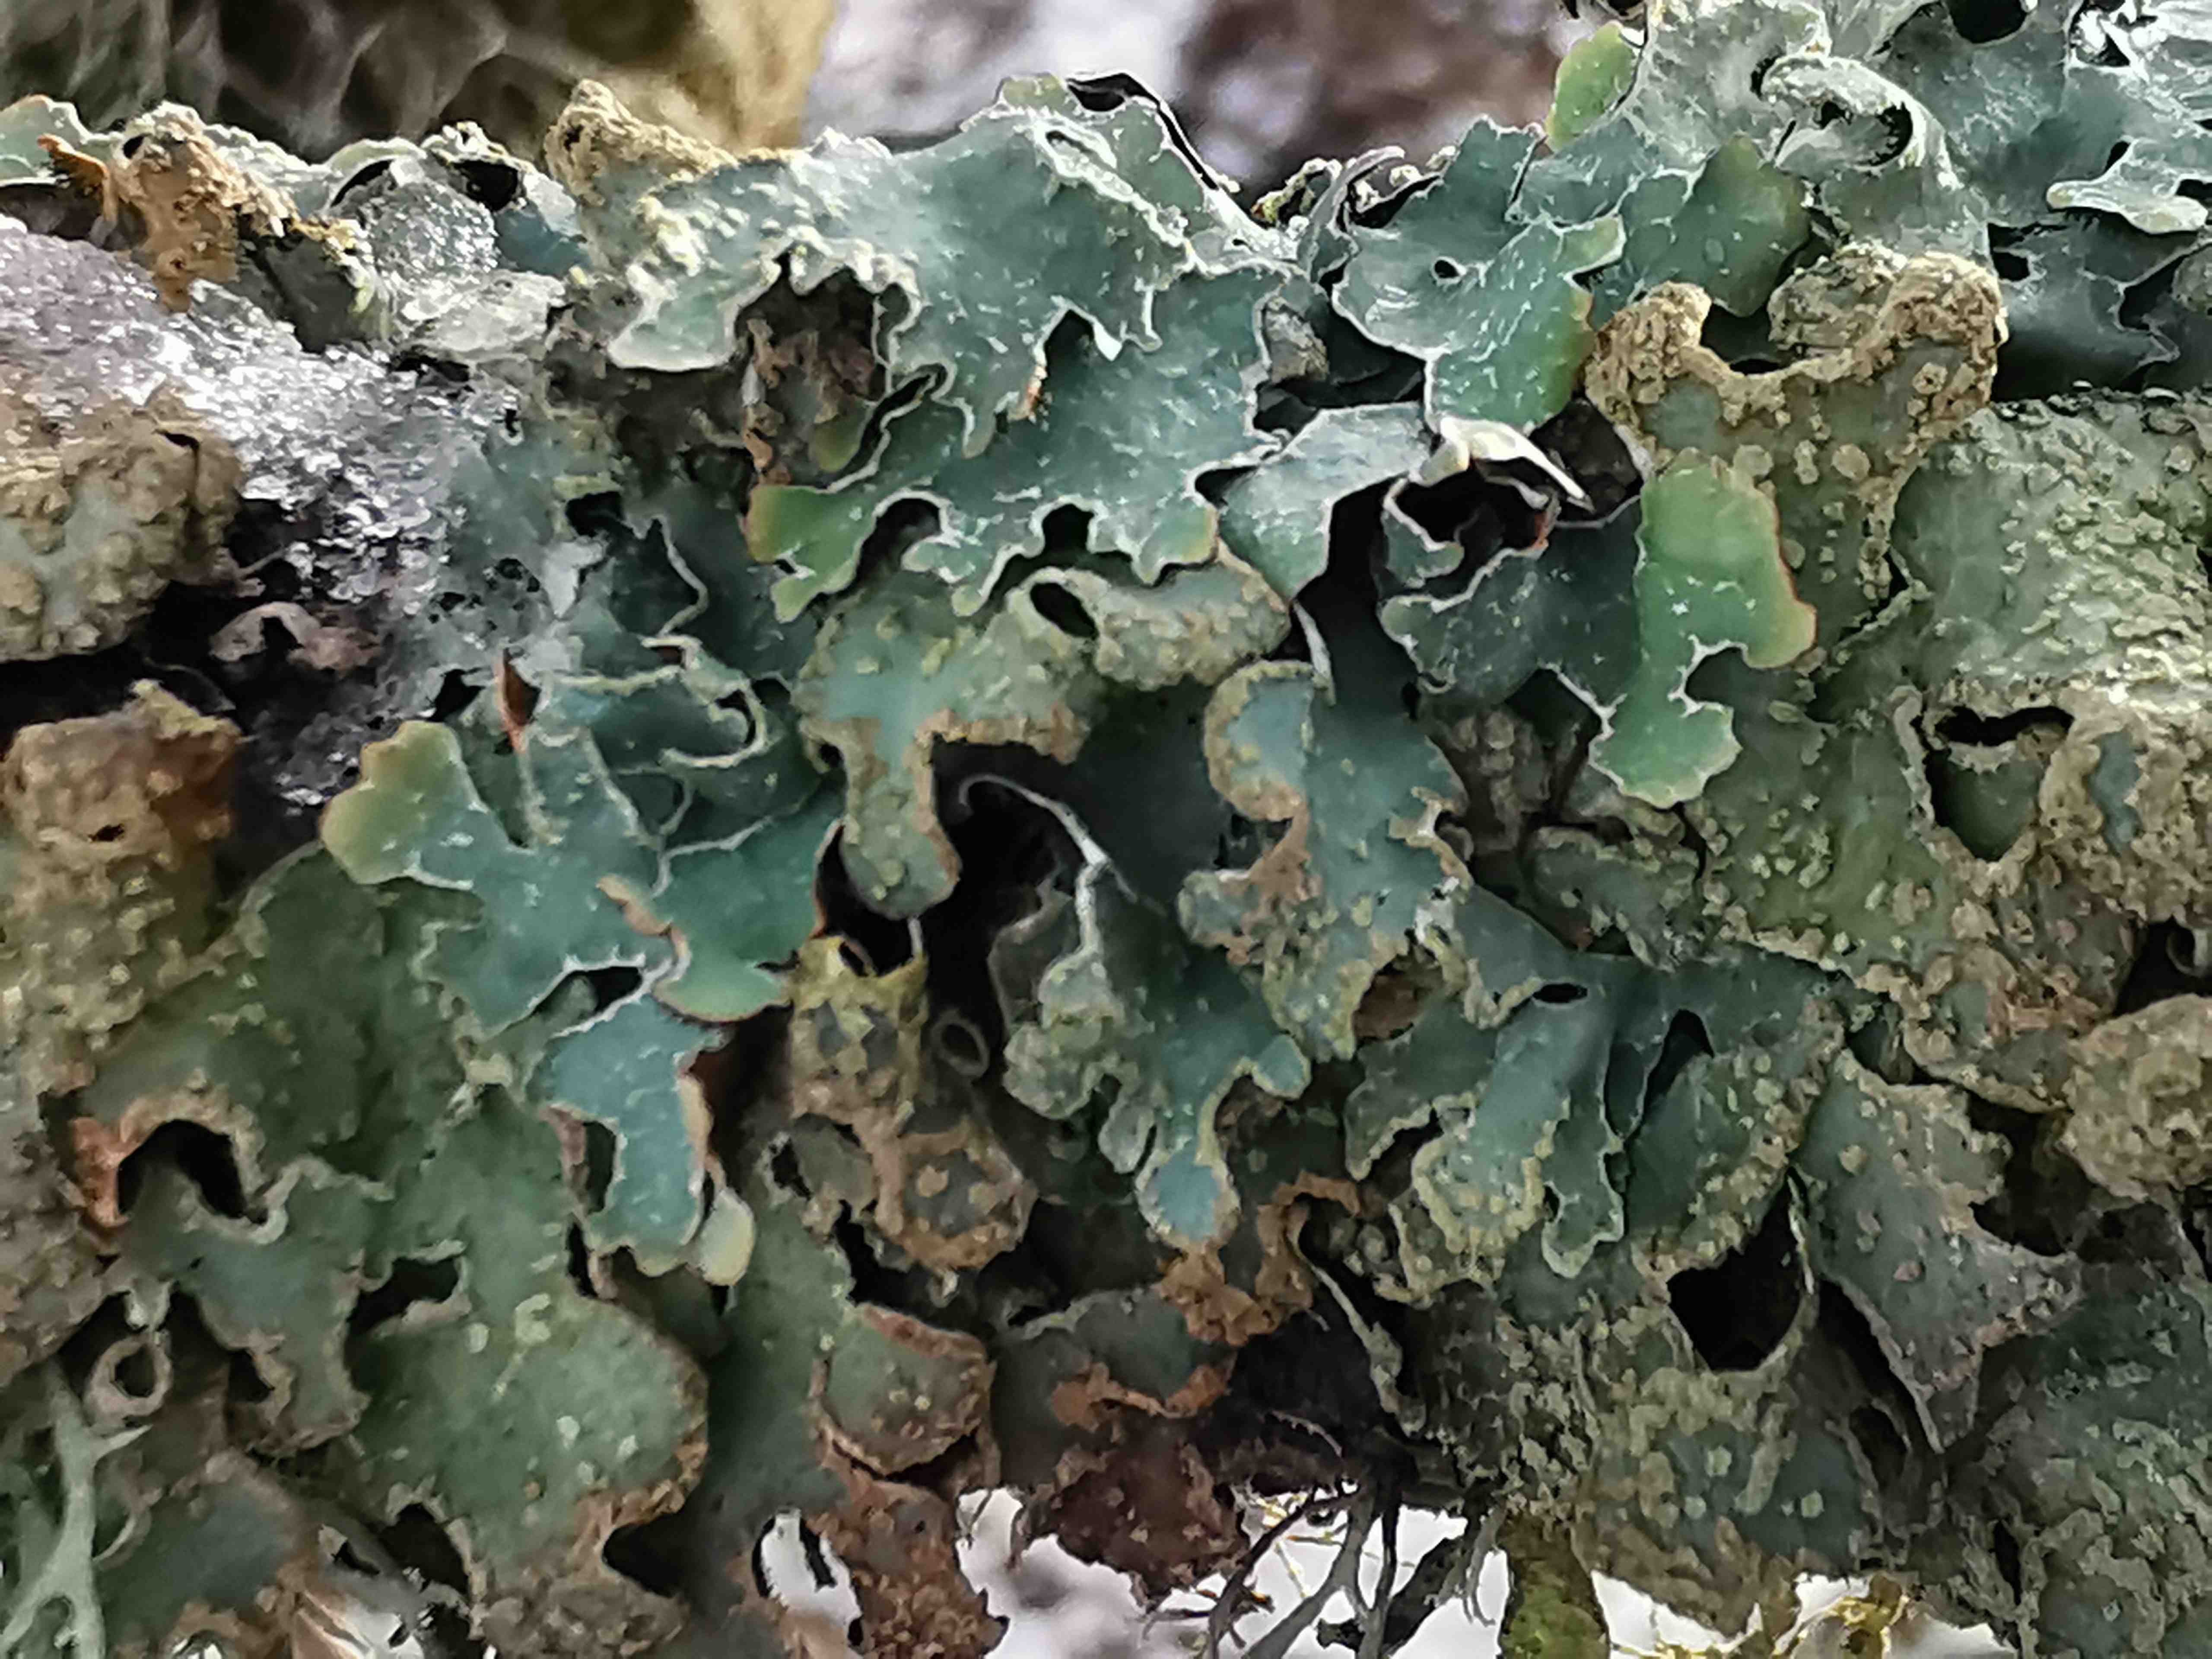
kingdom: Fungi
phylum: Ascomycota
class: Lecanoromycetes
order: Lecanorales
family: Parmeliaceae
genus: Parmelia
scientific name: Parmelia sulcata
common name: rynket skållav
